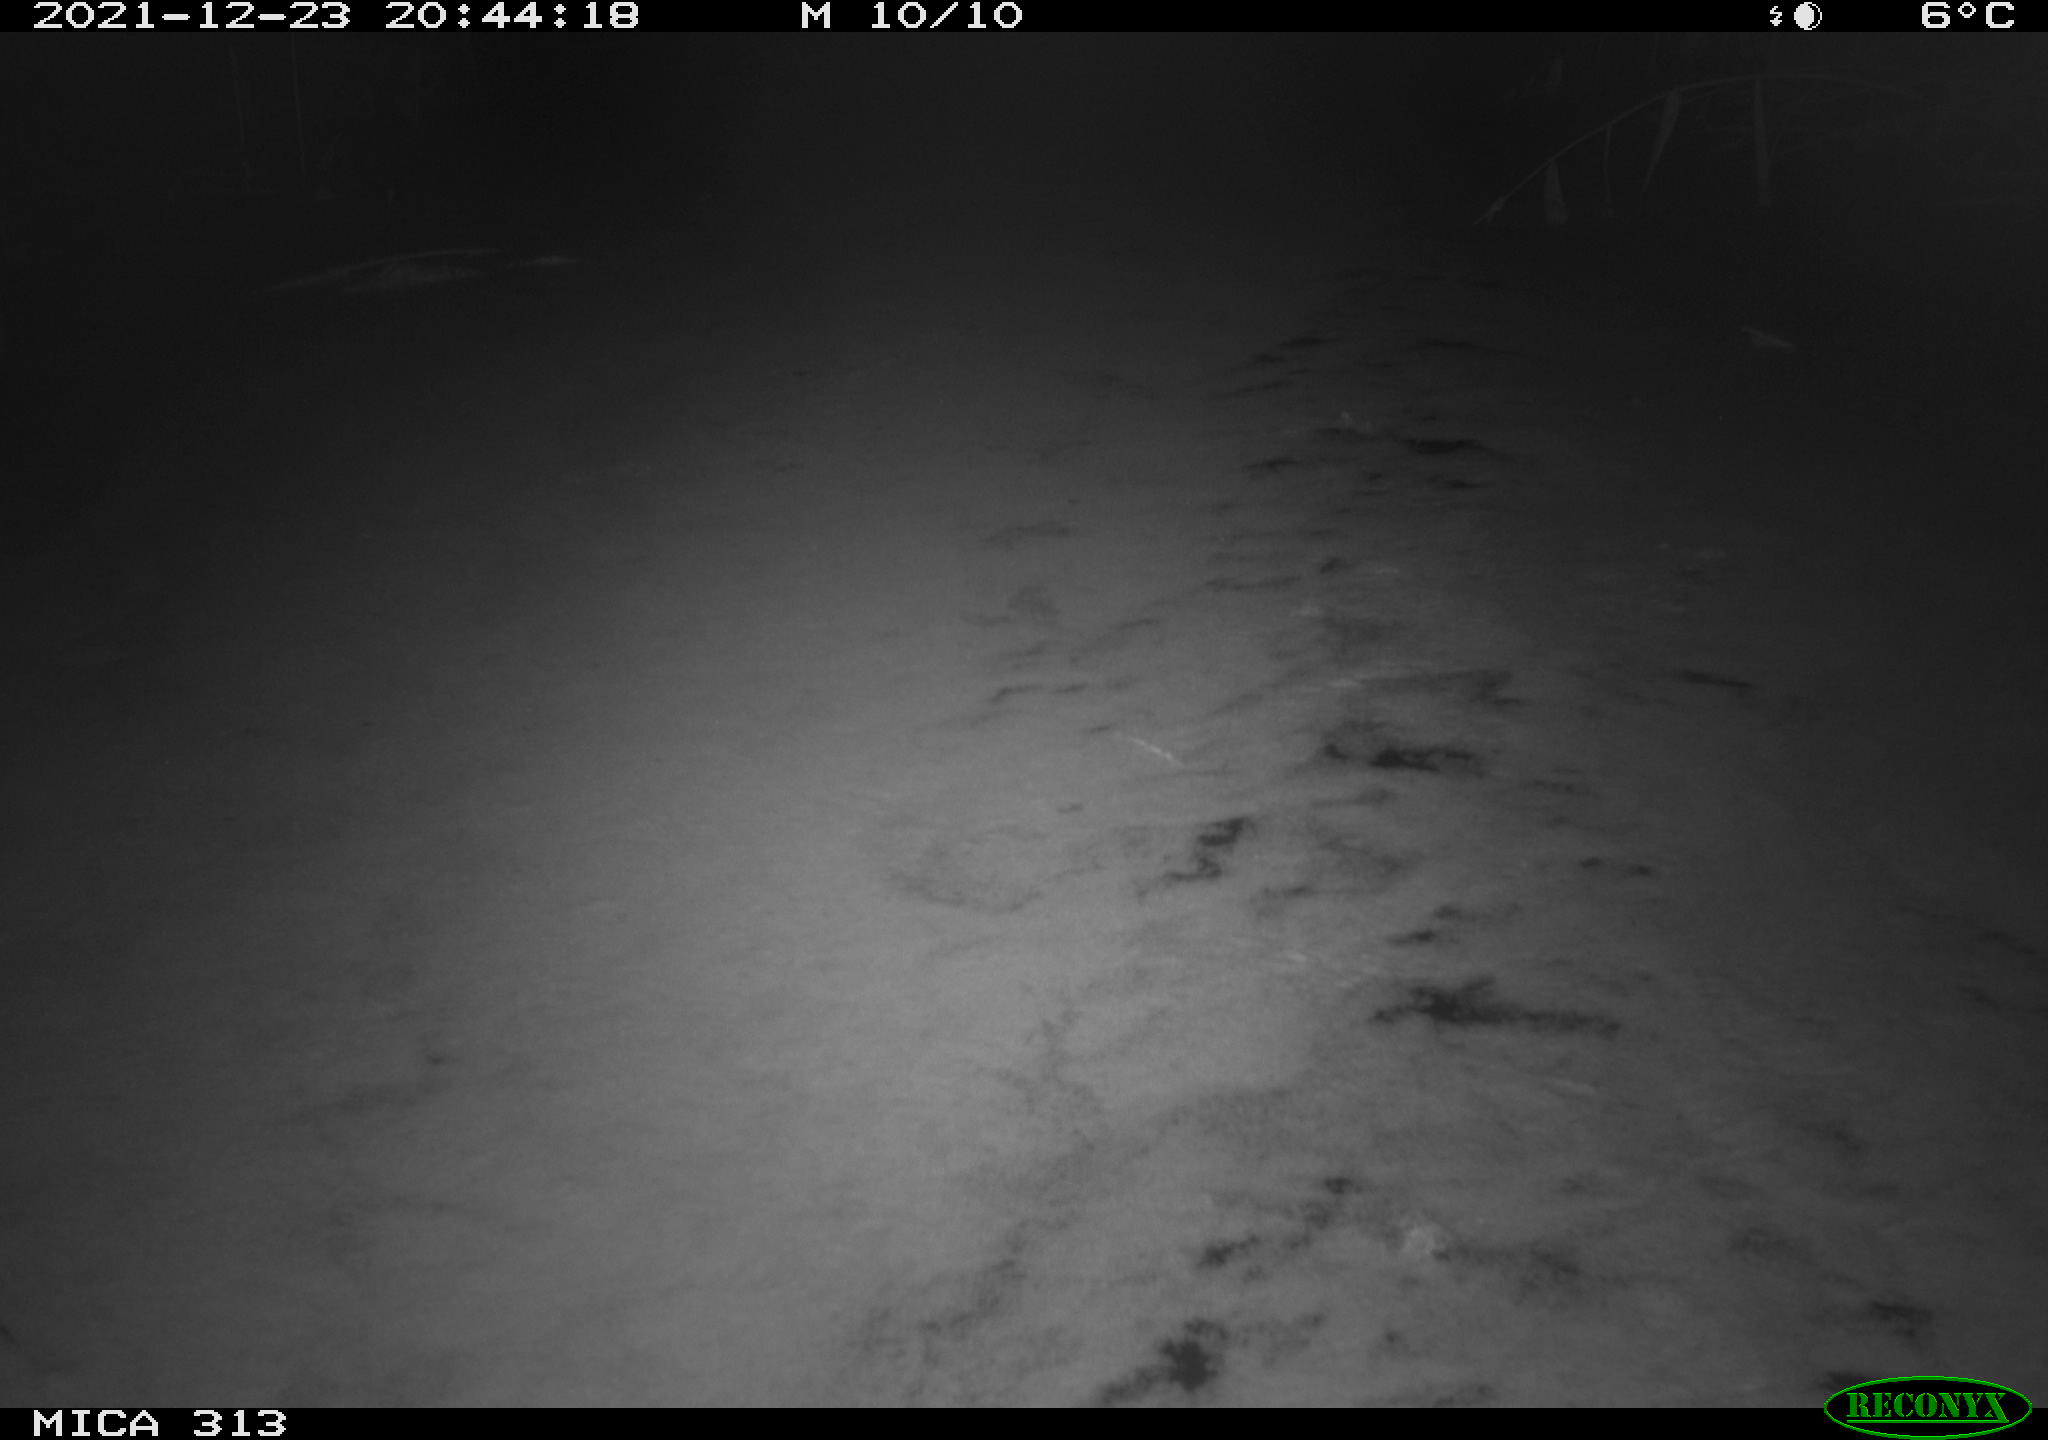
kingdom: Animalia
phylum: Chordata
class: Aves
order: Gruiformes
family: Rallidae
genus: Gallinula
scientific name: Gallinula chloropus
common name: Common moorhen
